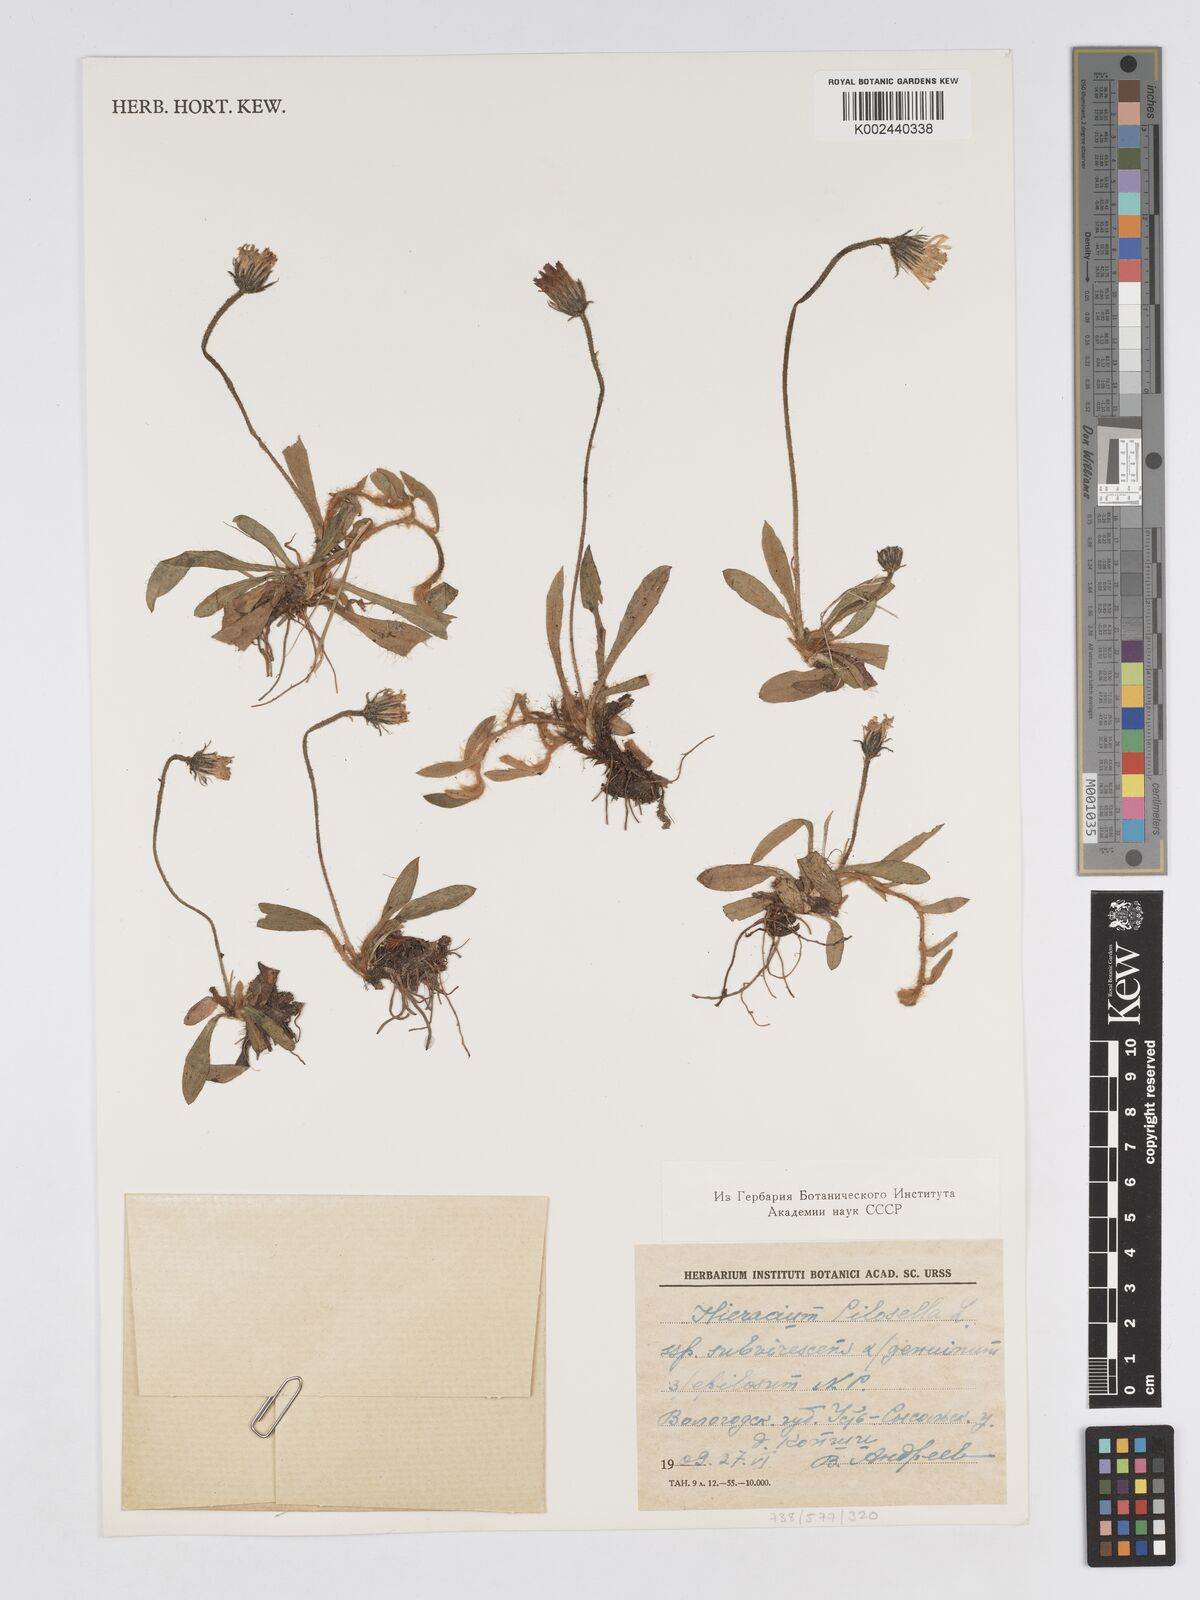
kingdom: Plantae
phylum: Tracheophyta
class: Magnoliopsida
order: Asterales
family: Asteraceae
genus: Pilosella
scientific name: Pilosella officinarum
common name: Mouse-ear hawkweed
